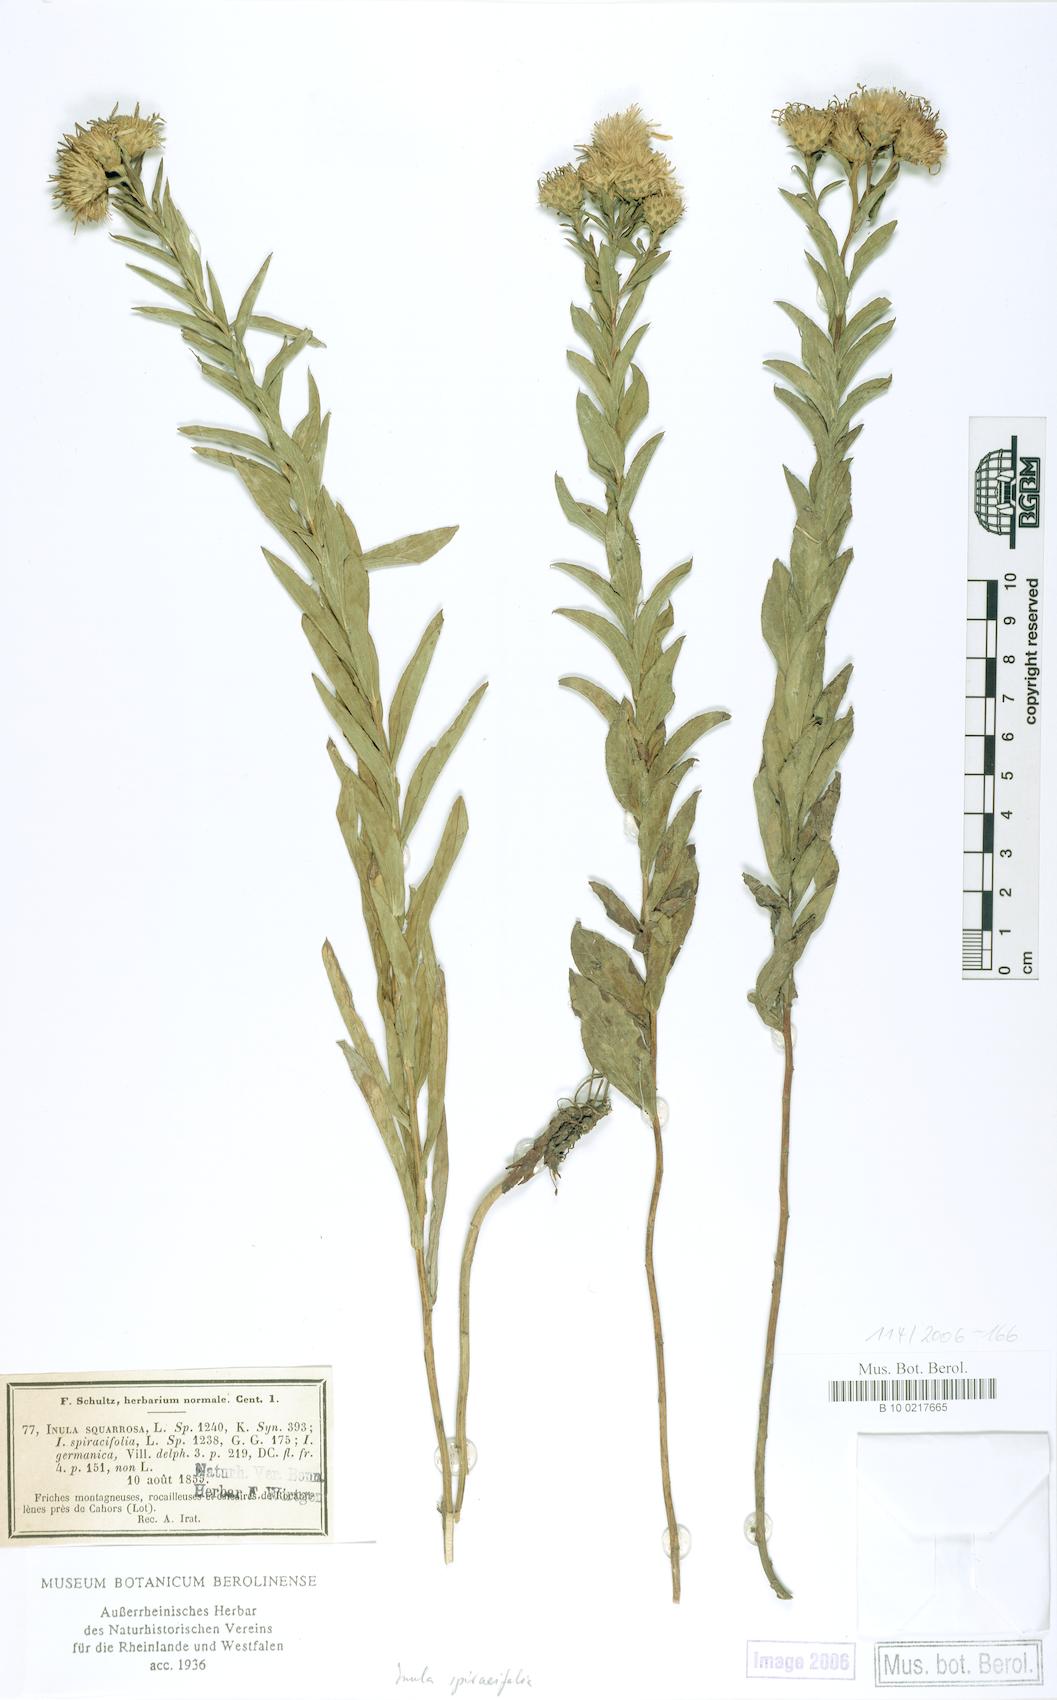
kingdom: Plantae
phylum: Tracheophyta
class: Magnoliopsida
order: Asterales
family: Asteraceae
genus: Pentanema
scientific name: Pentanema spiraeifolium
